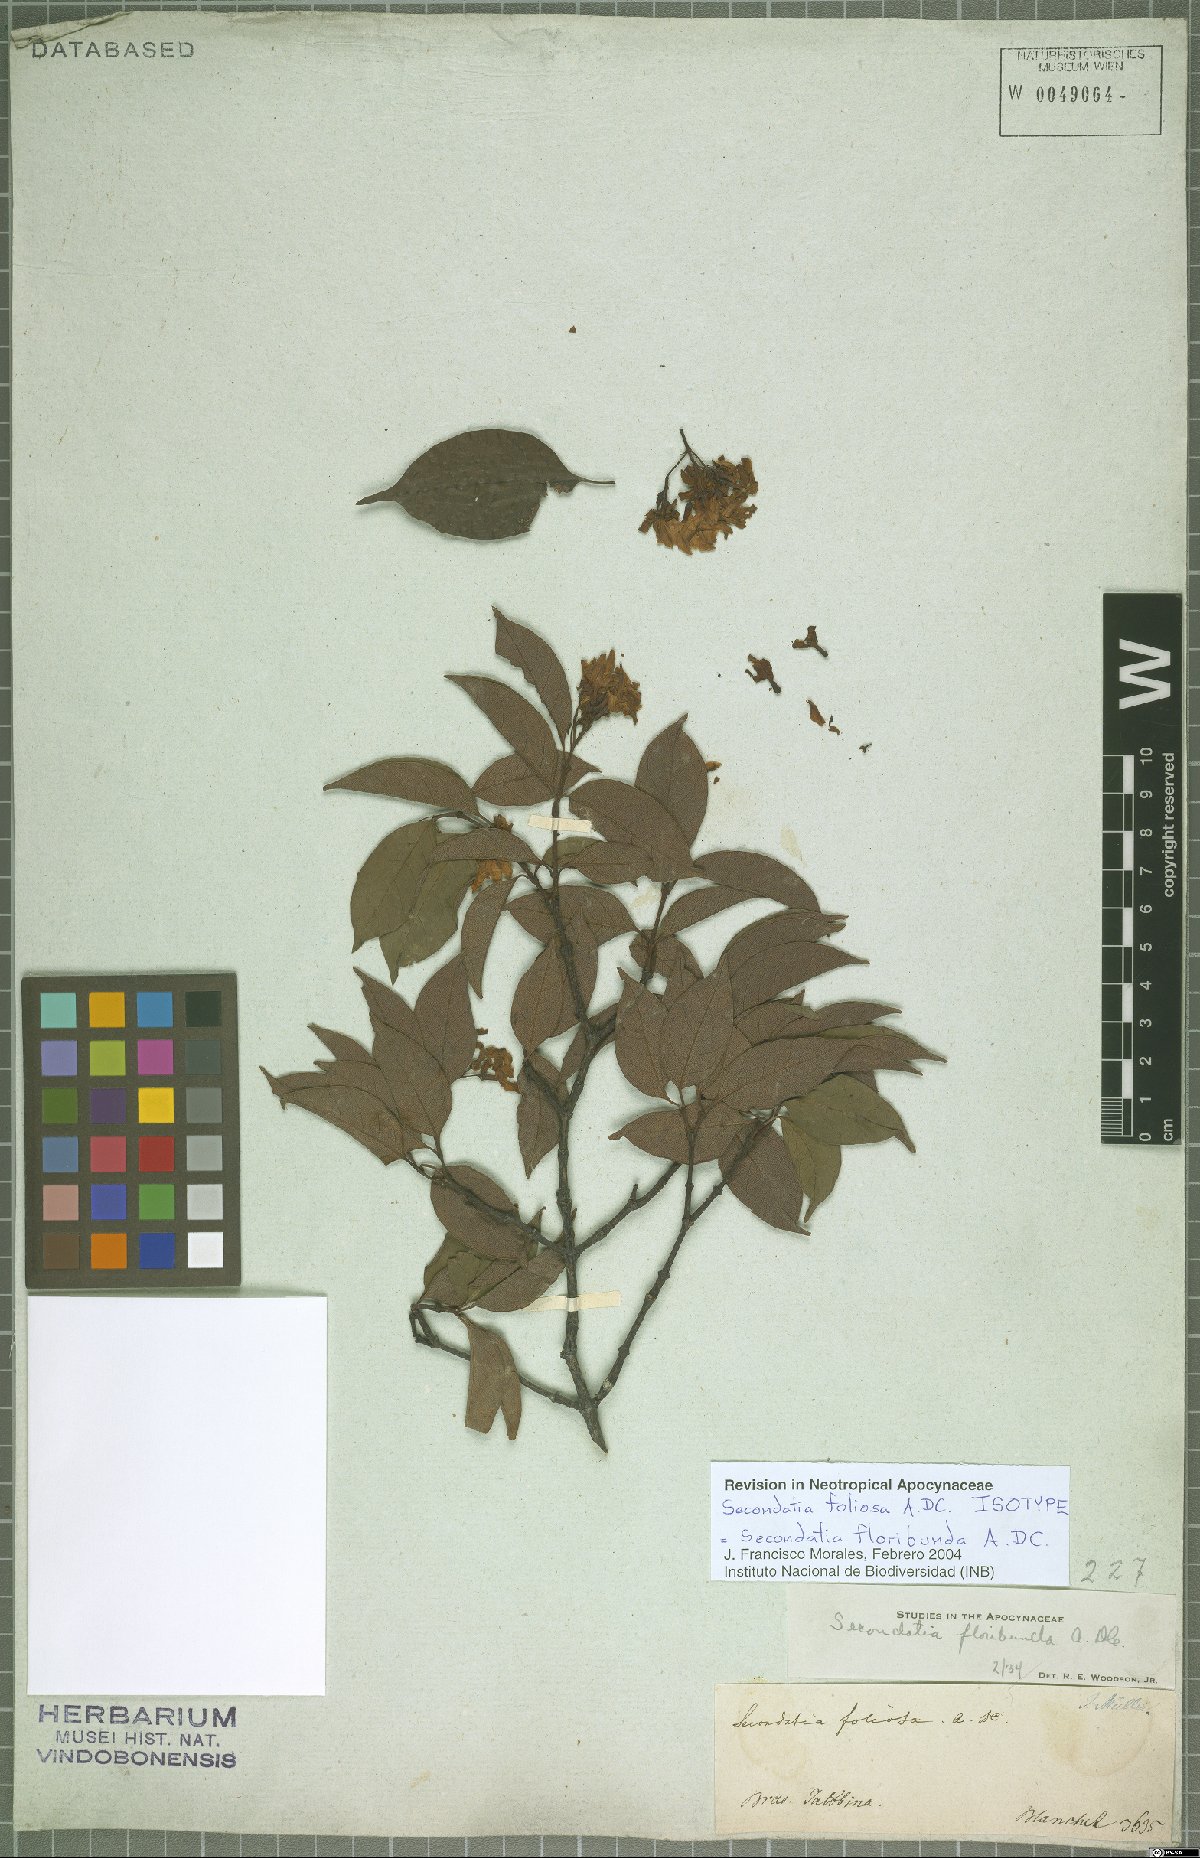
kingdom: Plantae
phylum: Tracheophyta
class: Magnoliopsida
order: Gentianales
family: Apocynaceae
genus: Secondatia
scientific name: Secondatia floribunda
